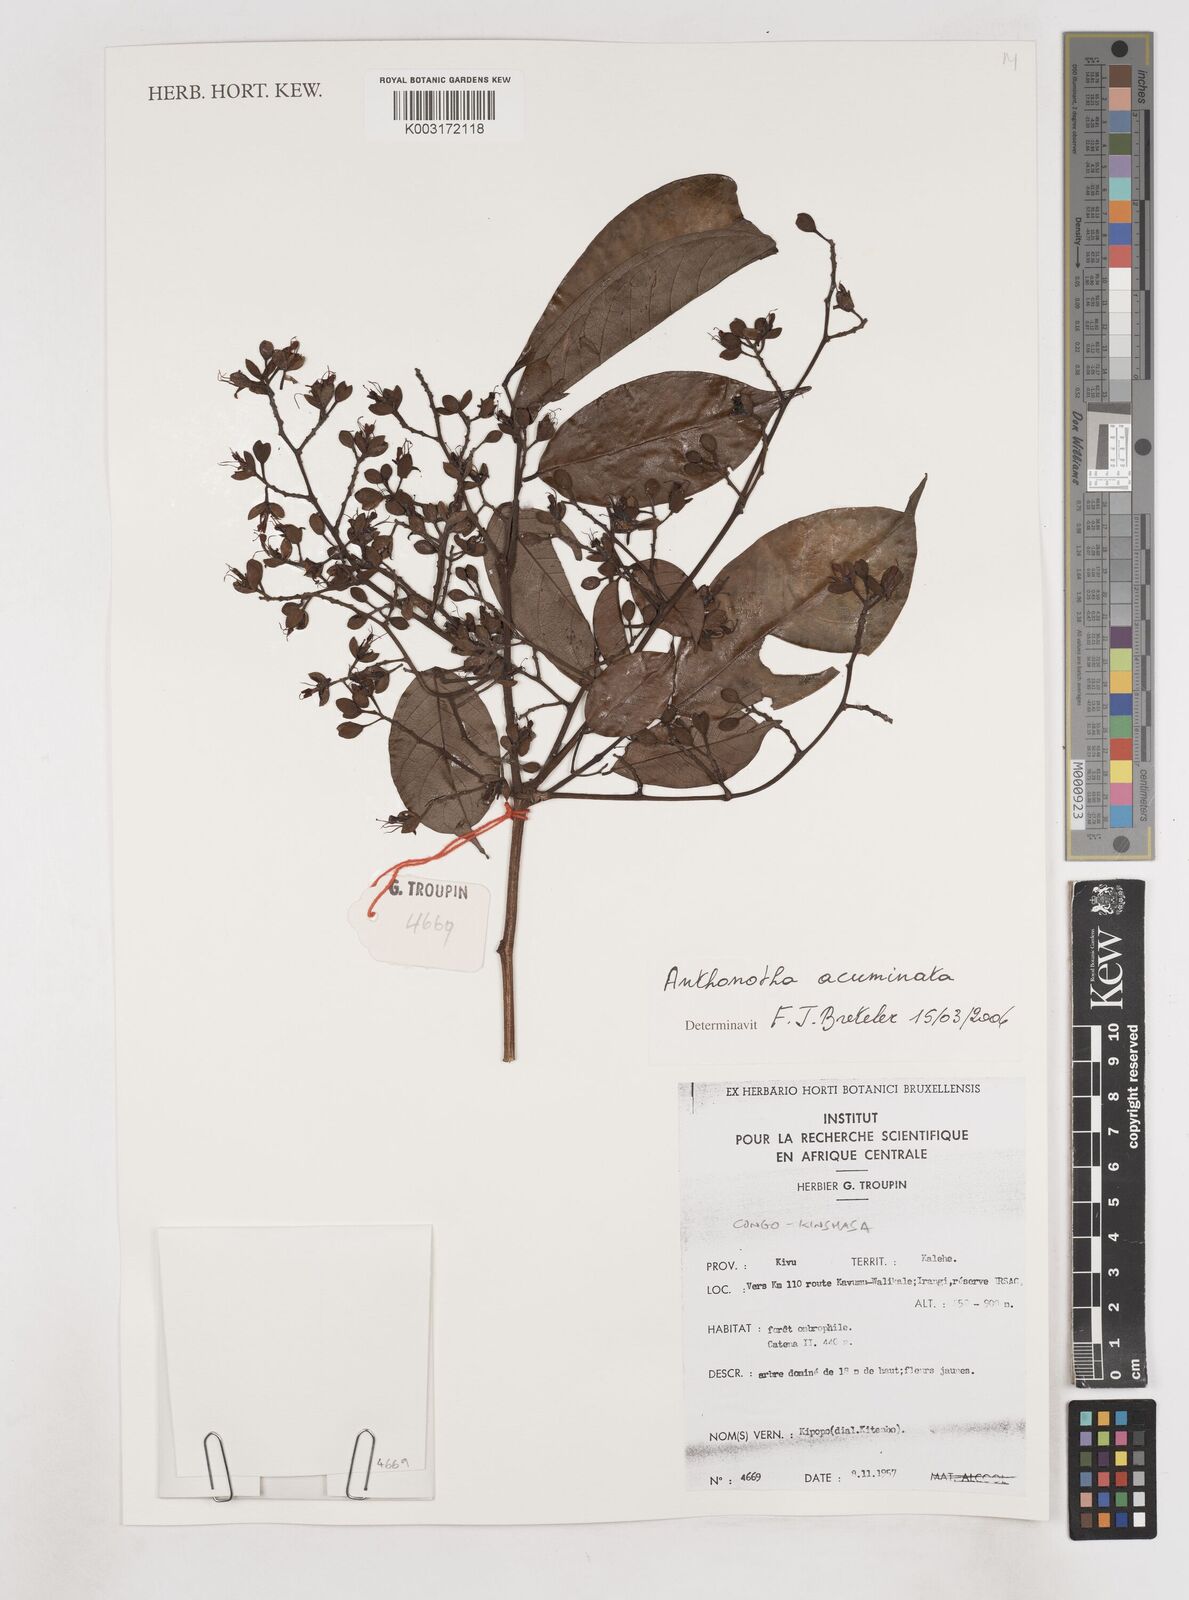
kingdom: Plantae
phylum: Tracheophyta
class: Magnoliopsida
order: Fabales
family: Fabaceae
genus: Anthonotha
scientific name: Anthonotha acuminata
